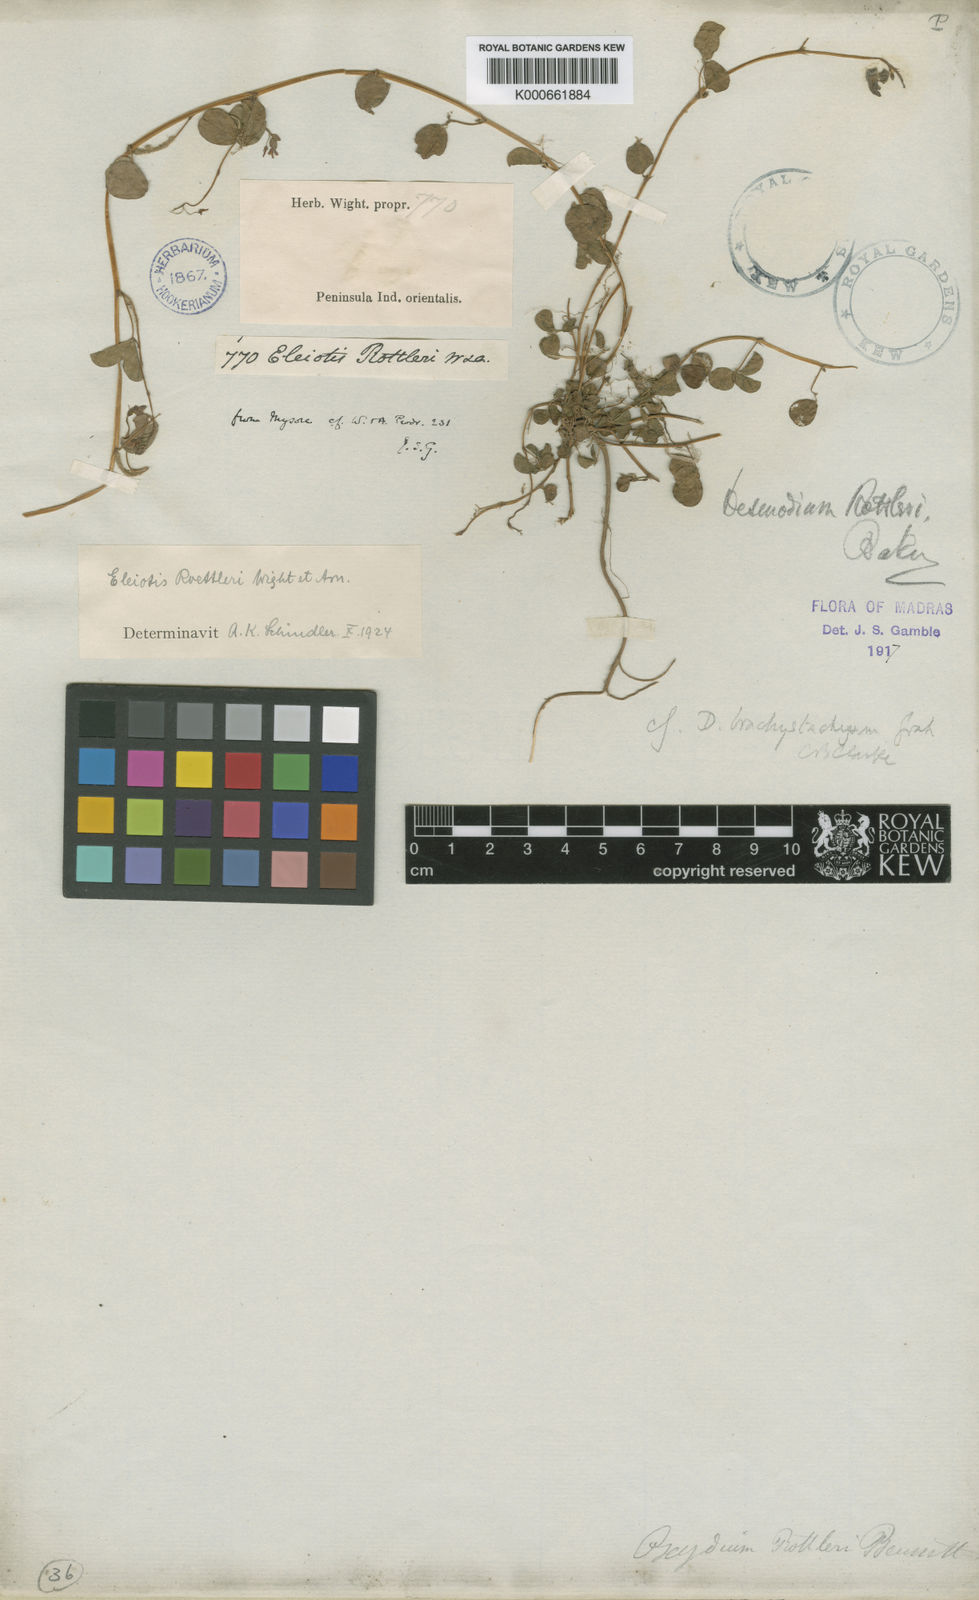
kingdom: Plantae
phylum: Tracheophyta
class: Magnoliopsida
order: Fabales
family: Fabaceae
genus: Eleiotis
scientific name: Eleiotis rottleri
